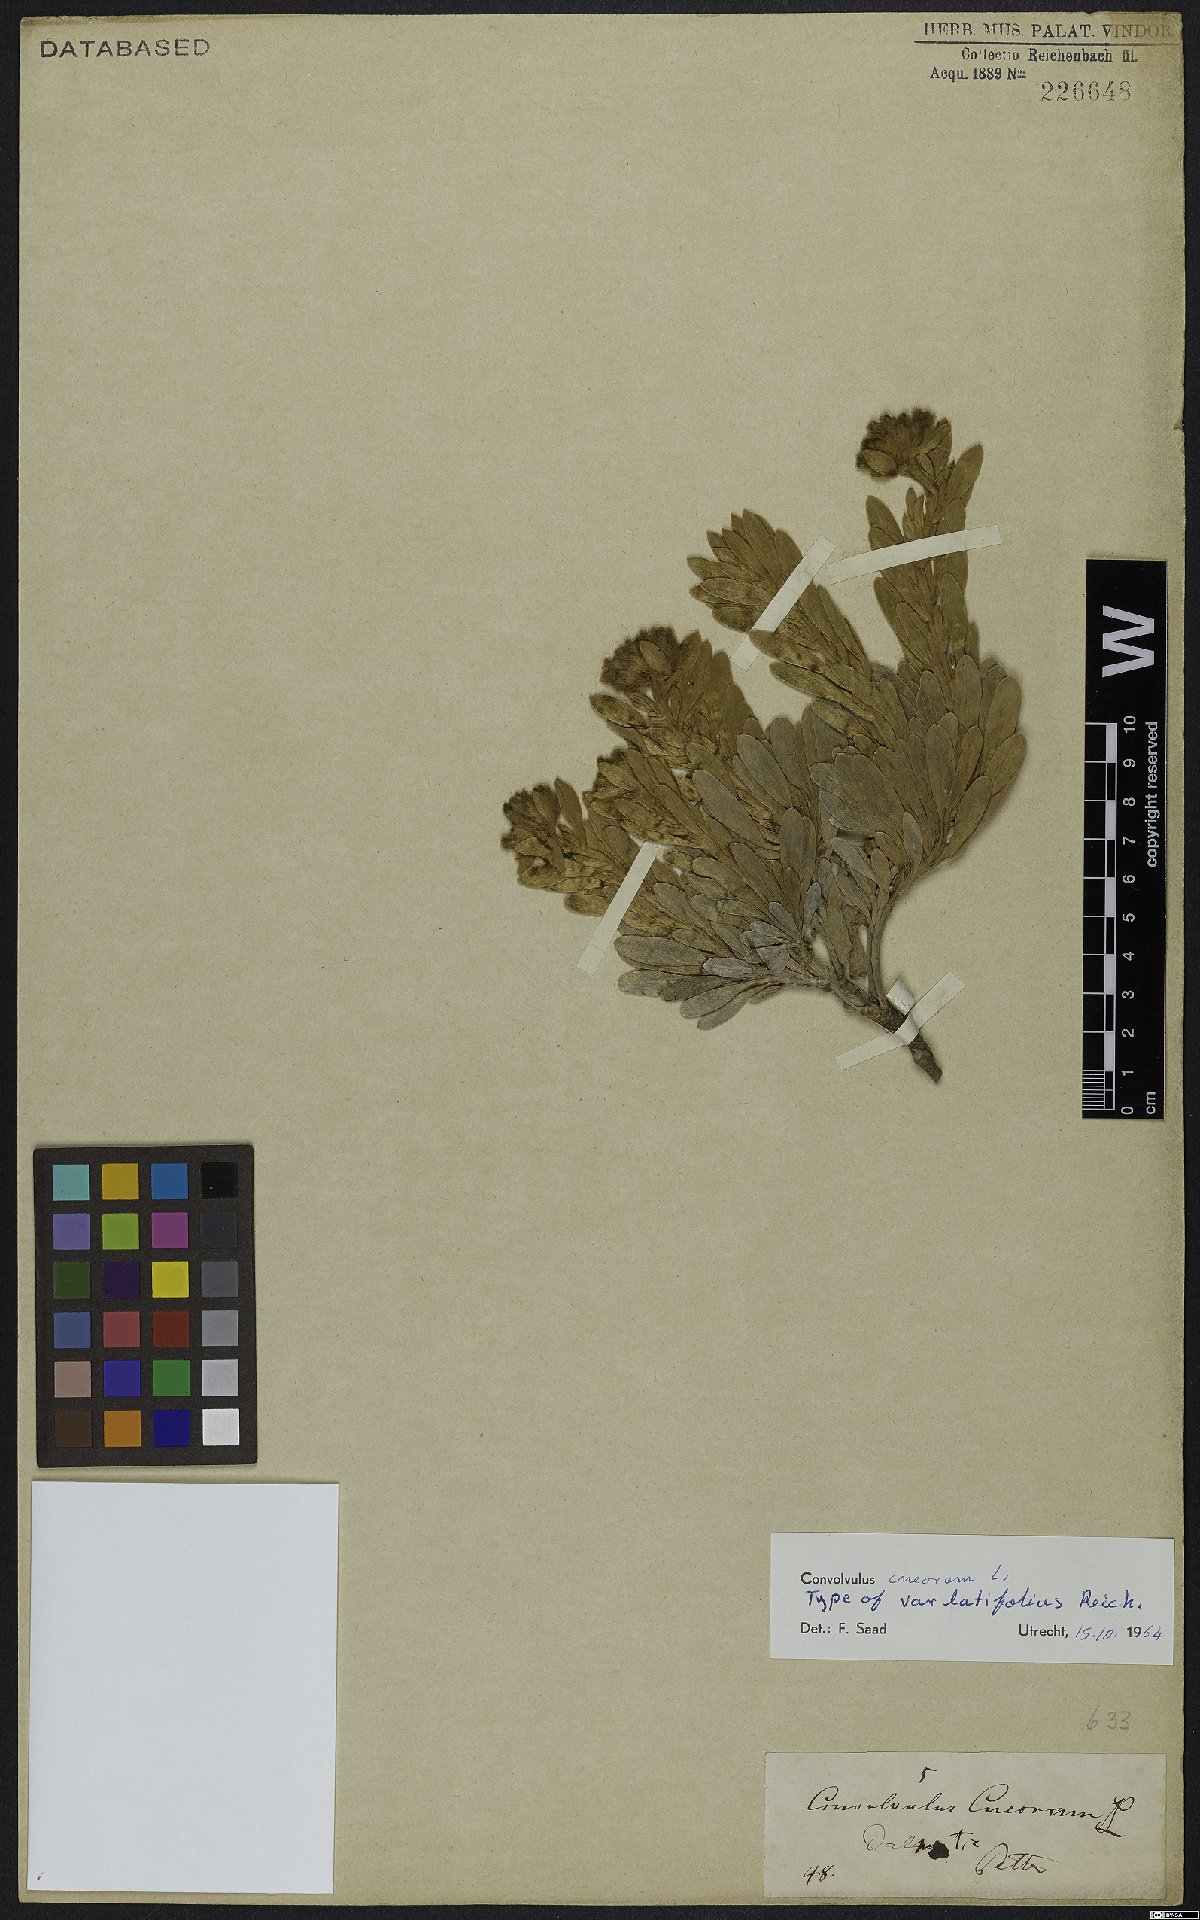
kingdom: Plantae
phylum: Tracheophyta
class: Magnoliopsida
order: Solanales
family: Convolvulaceae
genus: Convolvulus
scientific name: Convolvulus cneorum
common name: Silverbush
